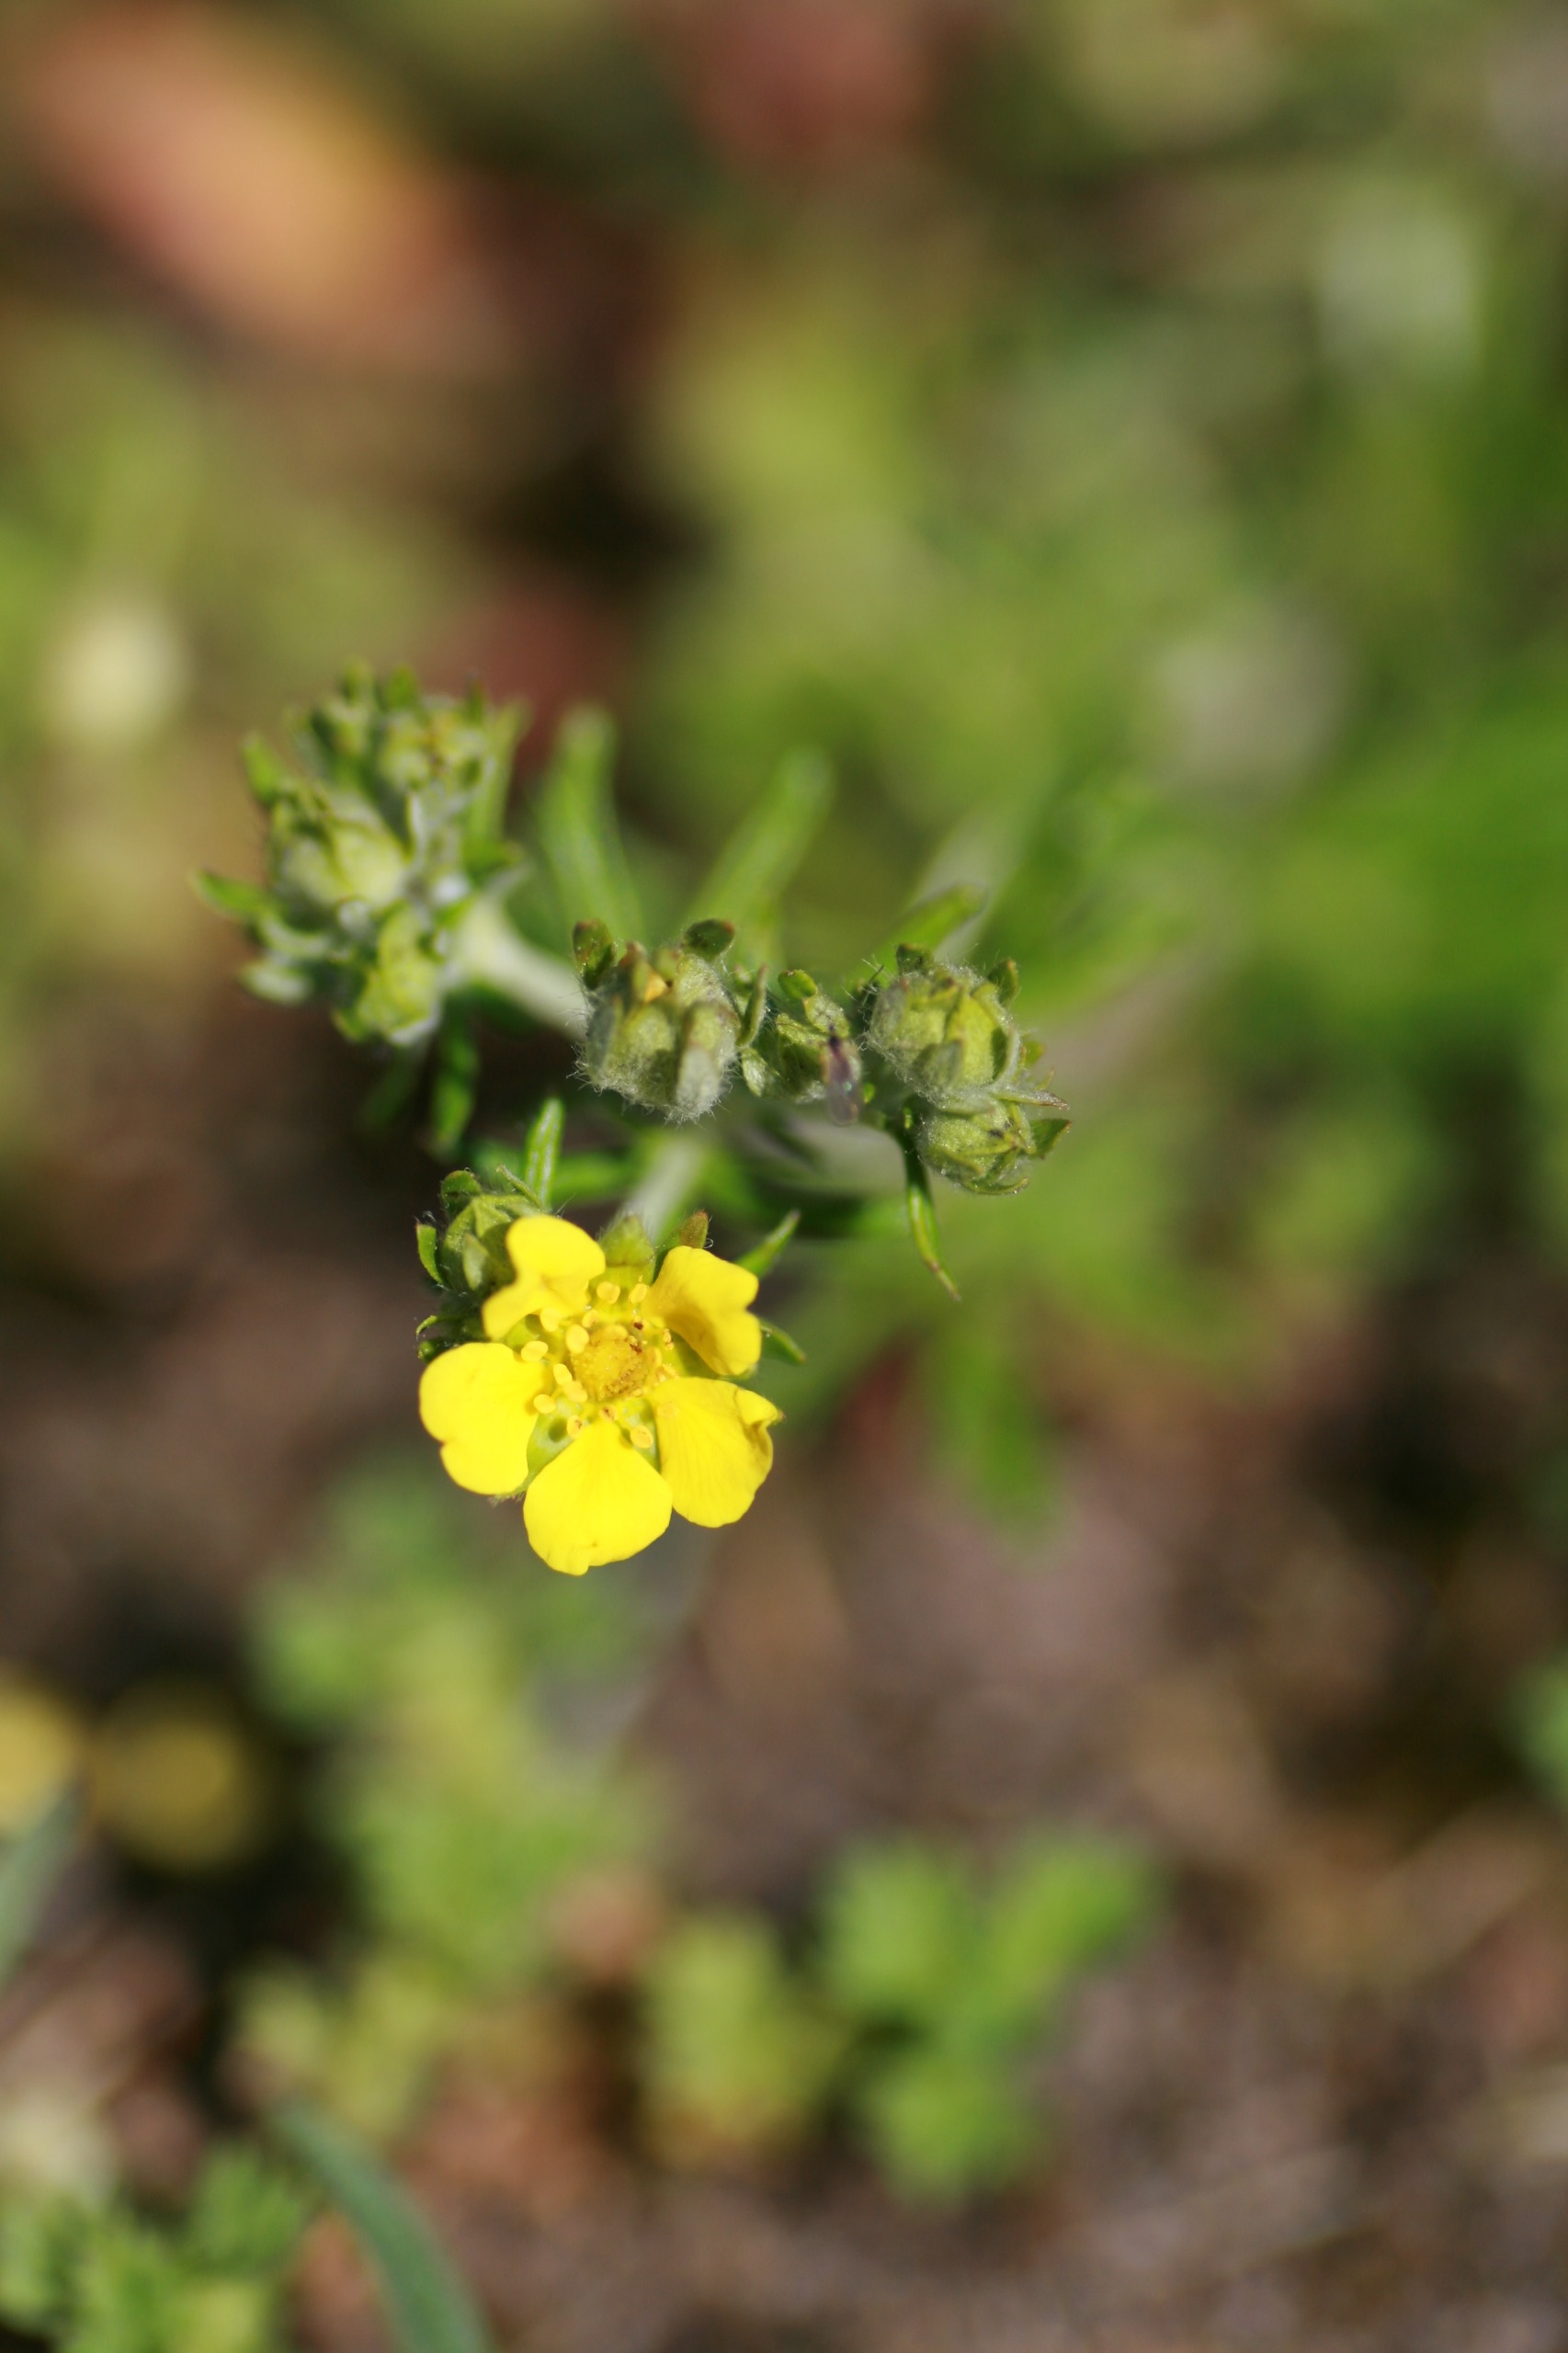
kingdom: Plantae
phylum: Tracheophyta
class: Magnoliopsida
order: Rosales
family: Rosaceae
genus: Potentilla
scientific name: Potentilla argentea
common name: Sølv-potentil
